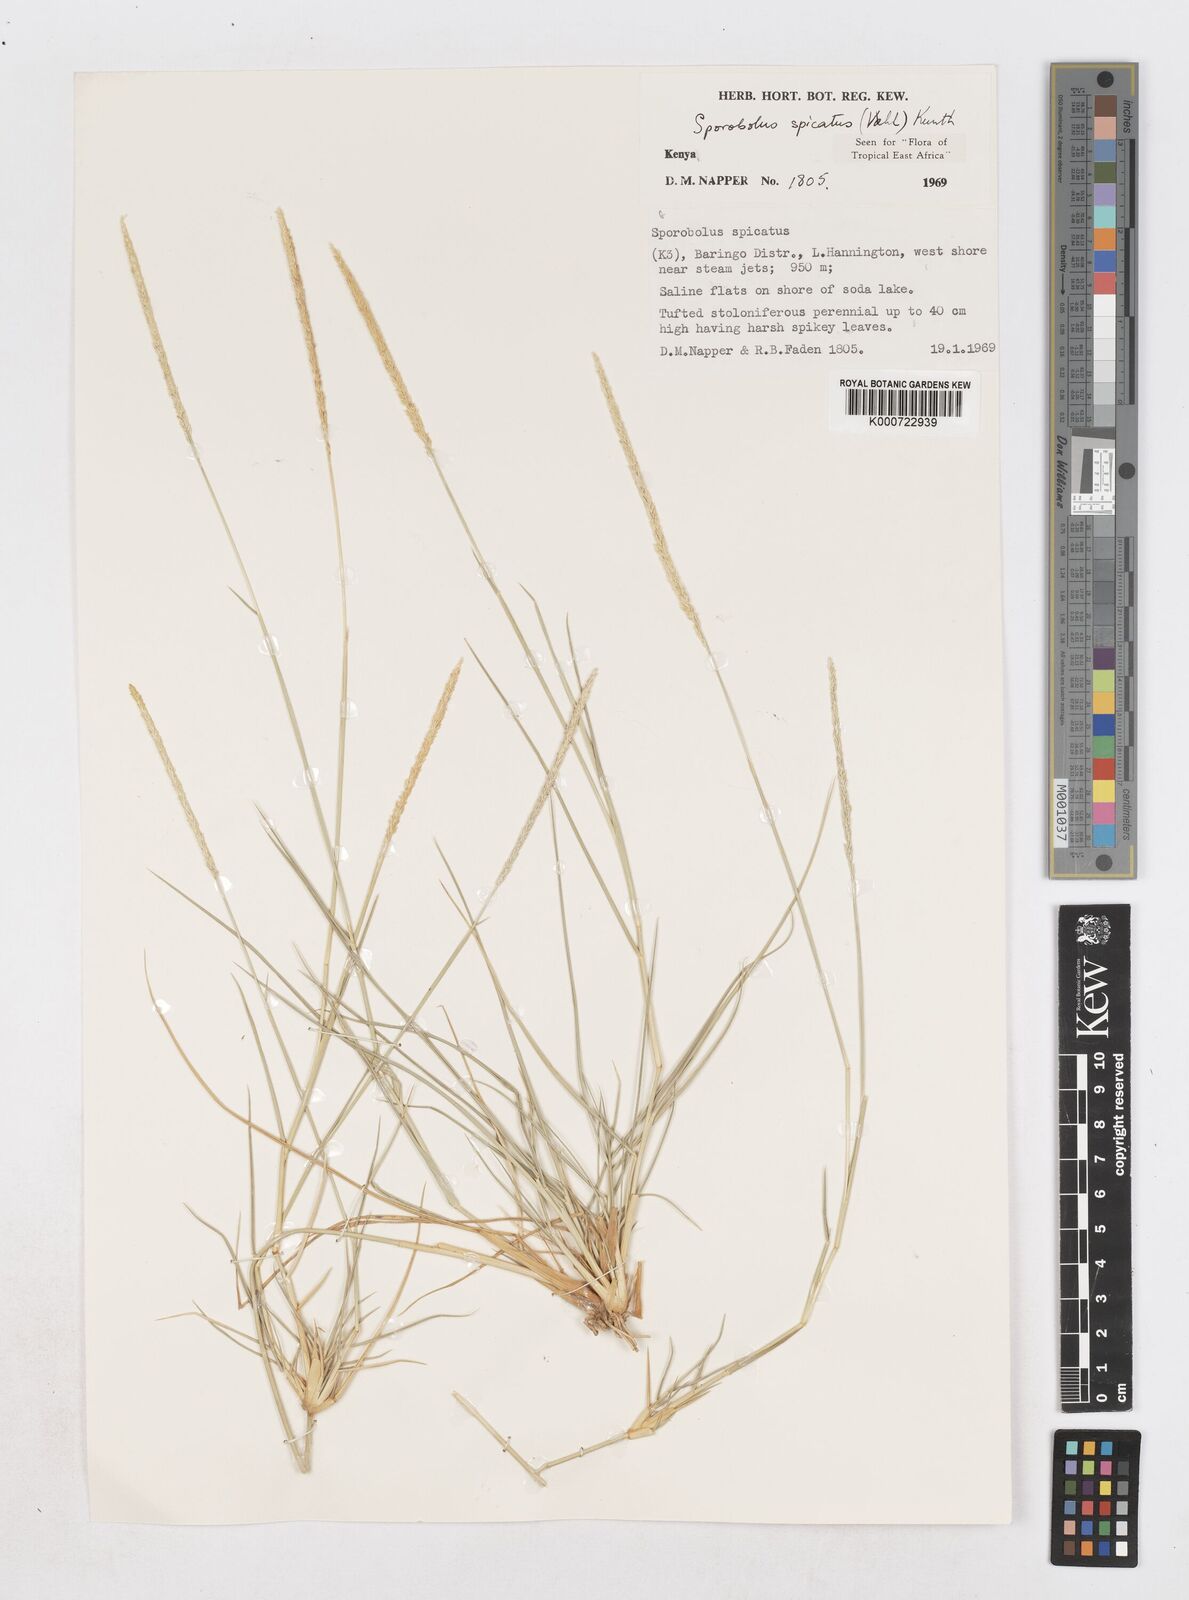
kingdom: Plantae
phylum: Tracheophyta
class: Liliopsida
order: Poales
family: Poaceae
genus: Sporobolus
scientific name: Sporobolus spicatus
